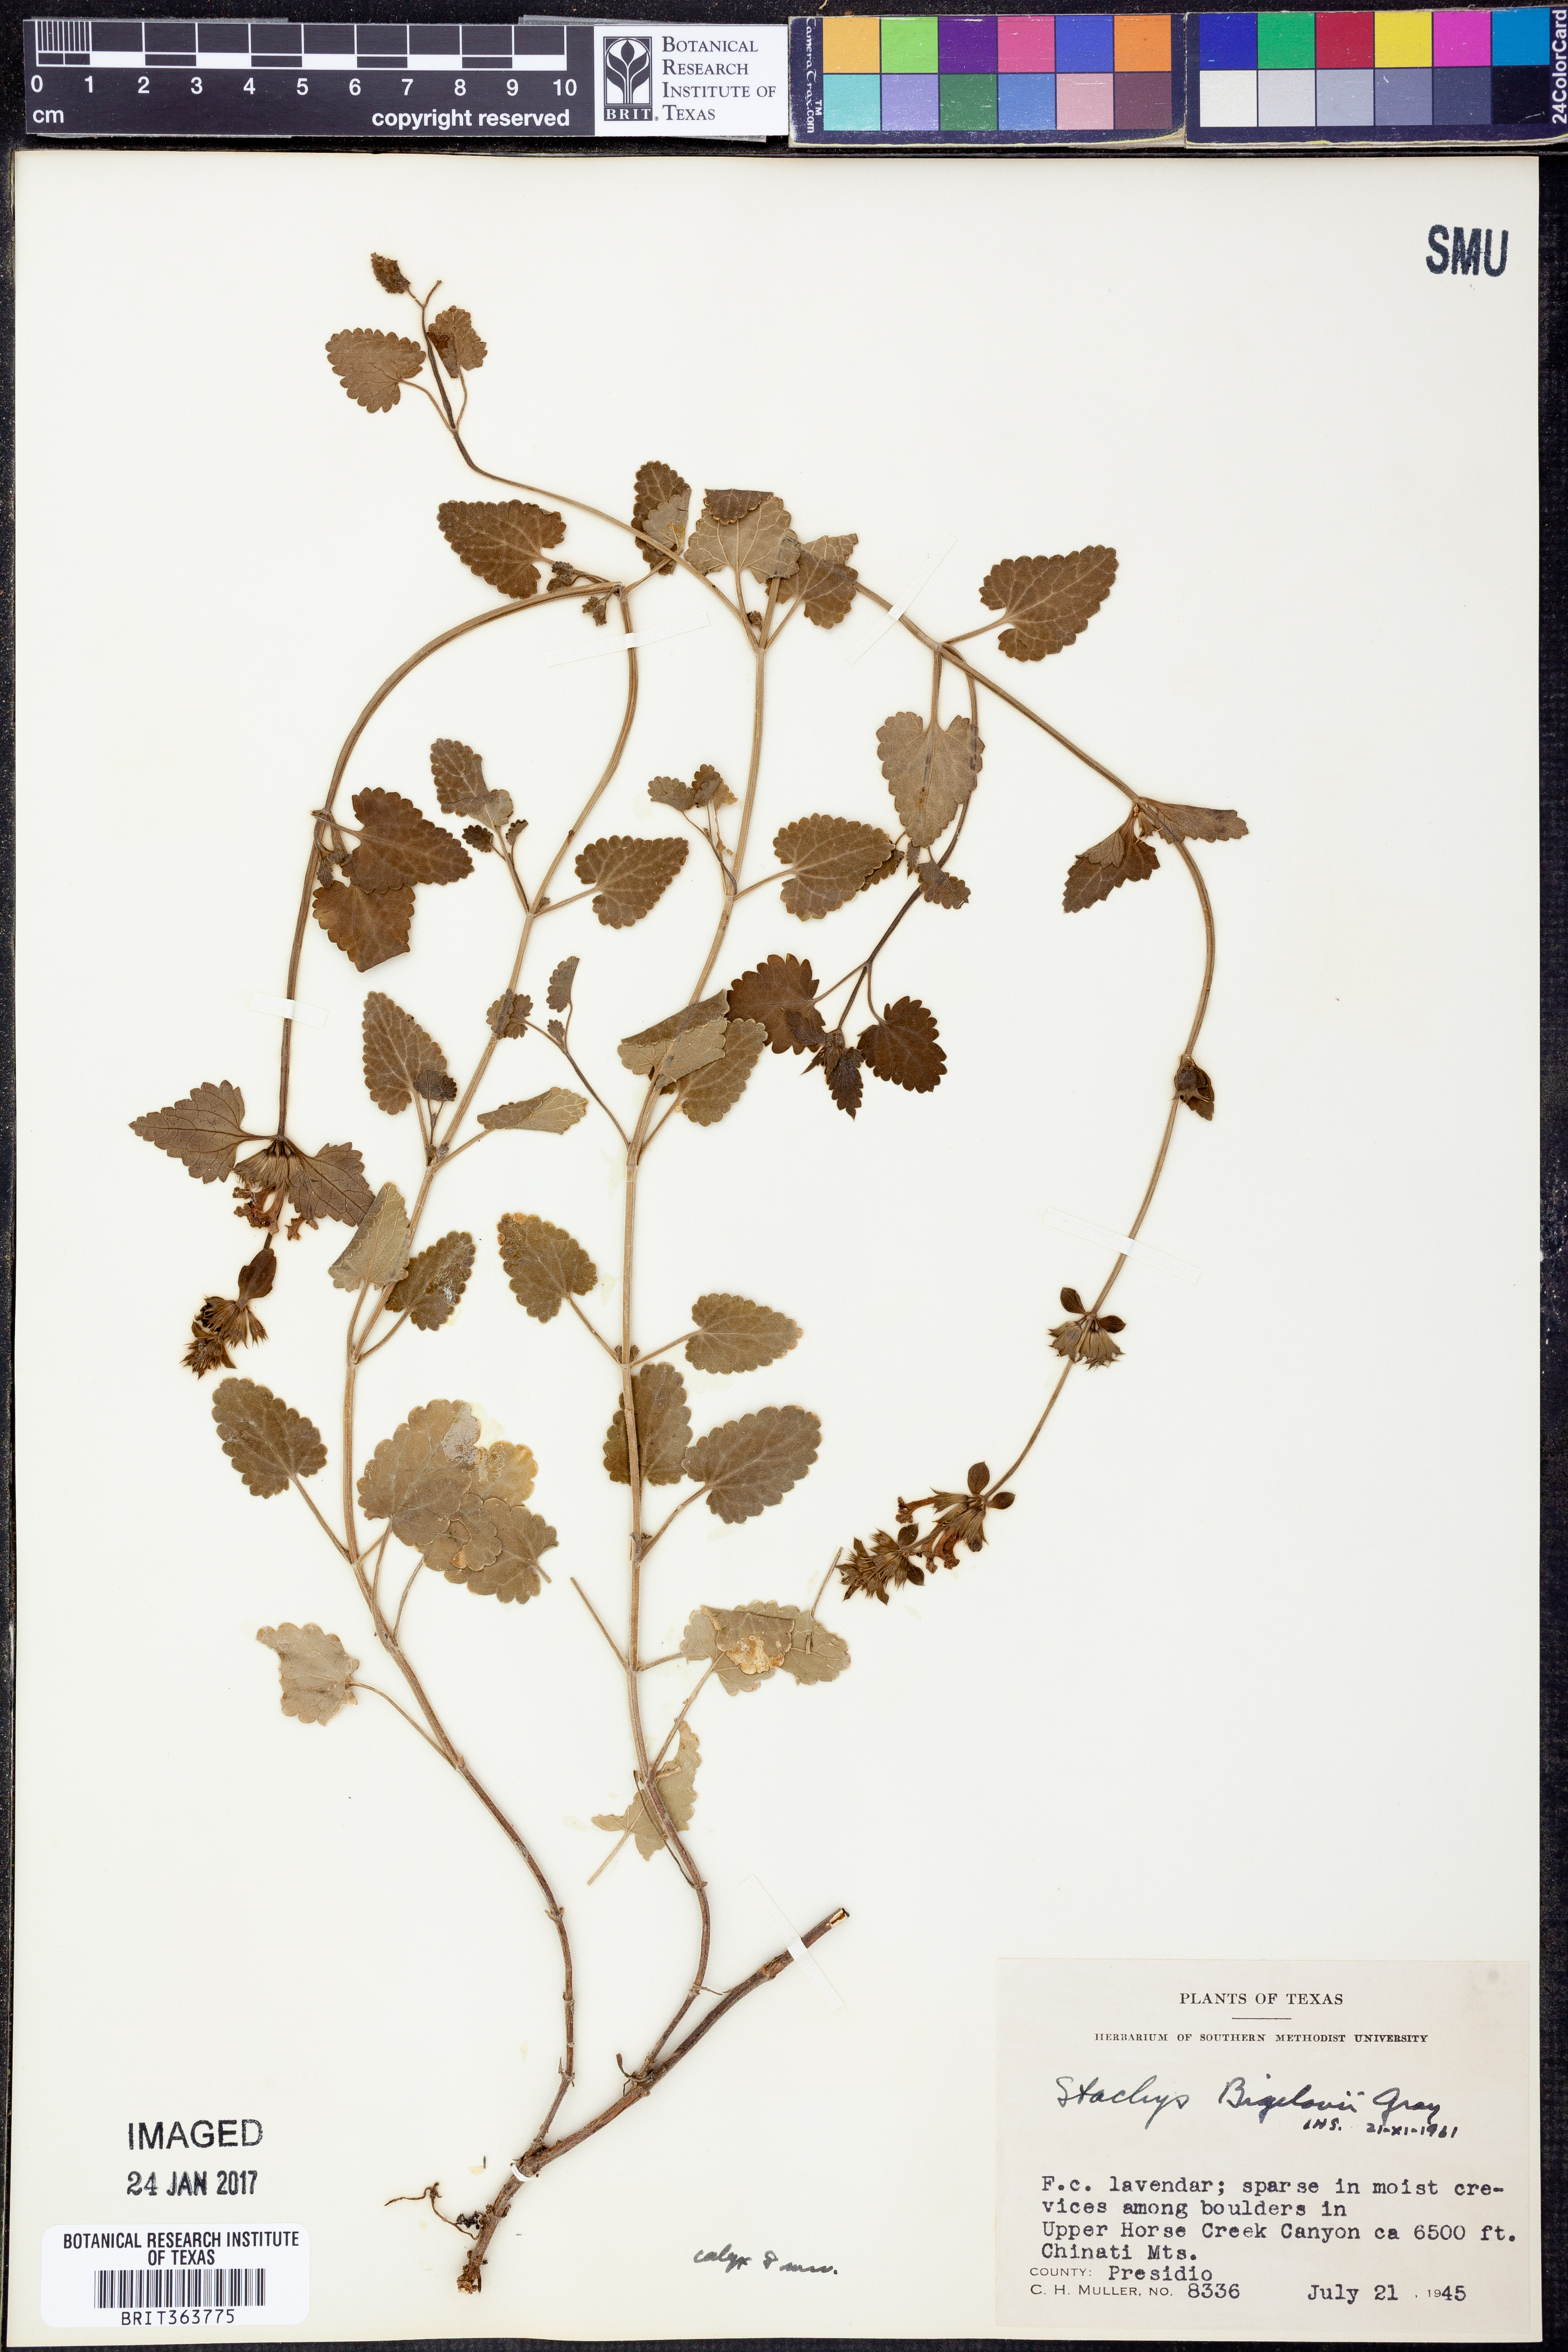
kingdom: Plantae
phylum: Tracheophyta
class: Magnoliopsida
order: Lamiales
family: Lamiaceae
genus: Stachys
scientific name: Stachys bigelovii
